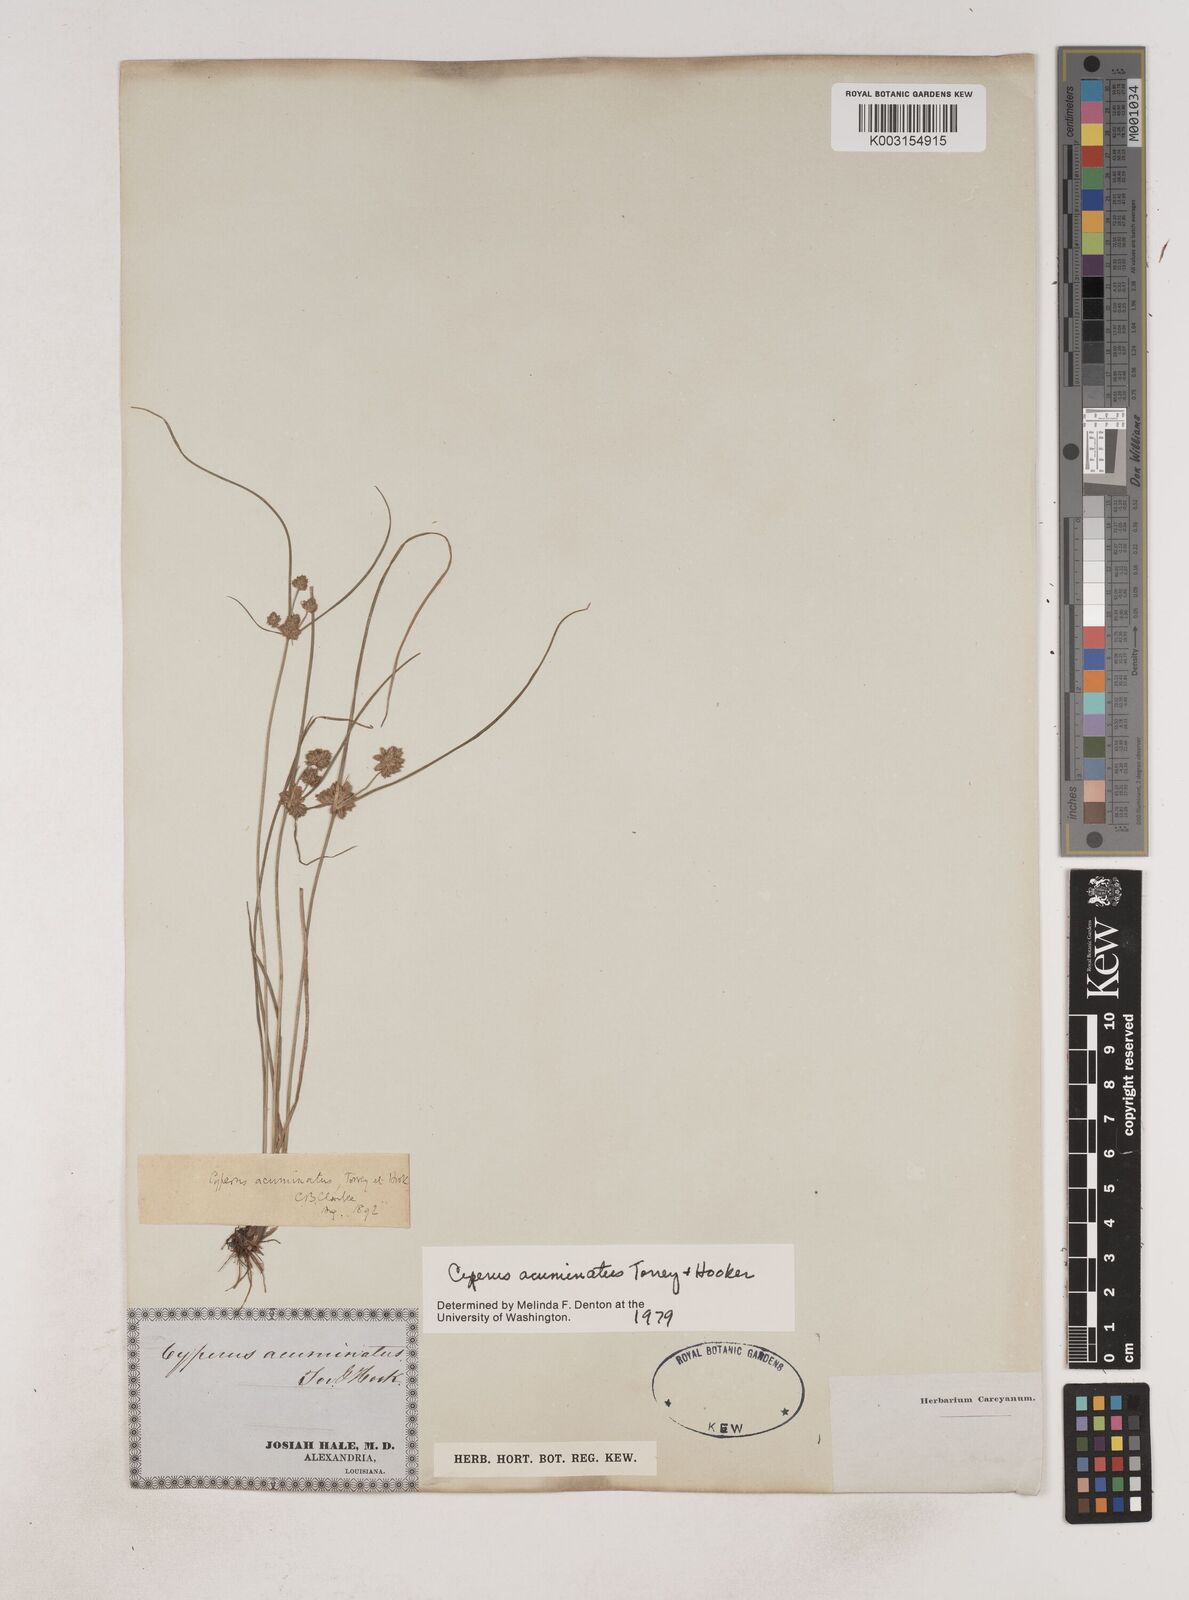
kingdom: Plantae
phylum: Tracheophyta
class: Liliopsida
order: Poales
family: Cyperaceae
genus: Cyperus
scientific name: Cyperus acuminatus
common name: Short-pointed cyperus
